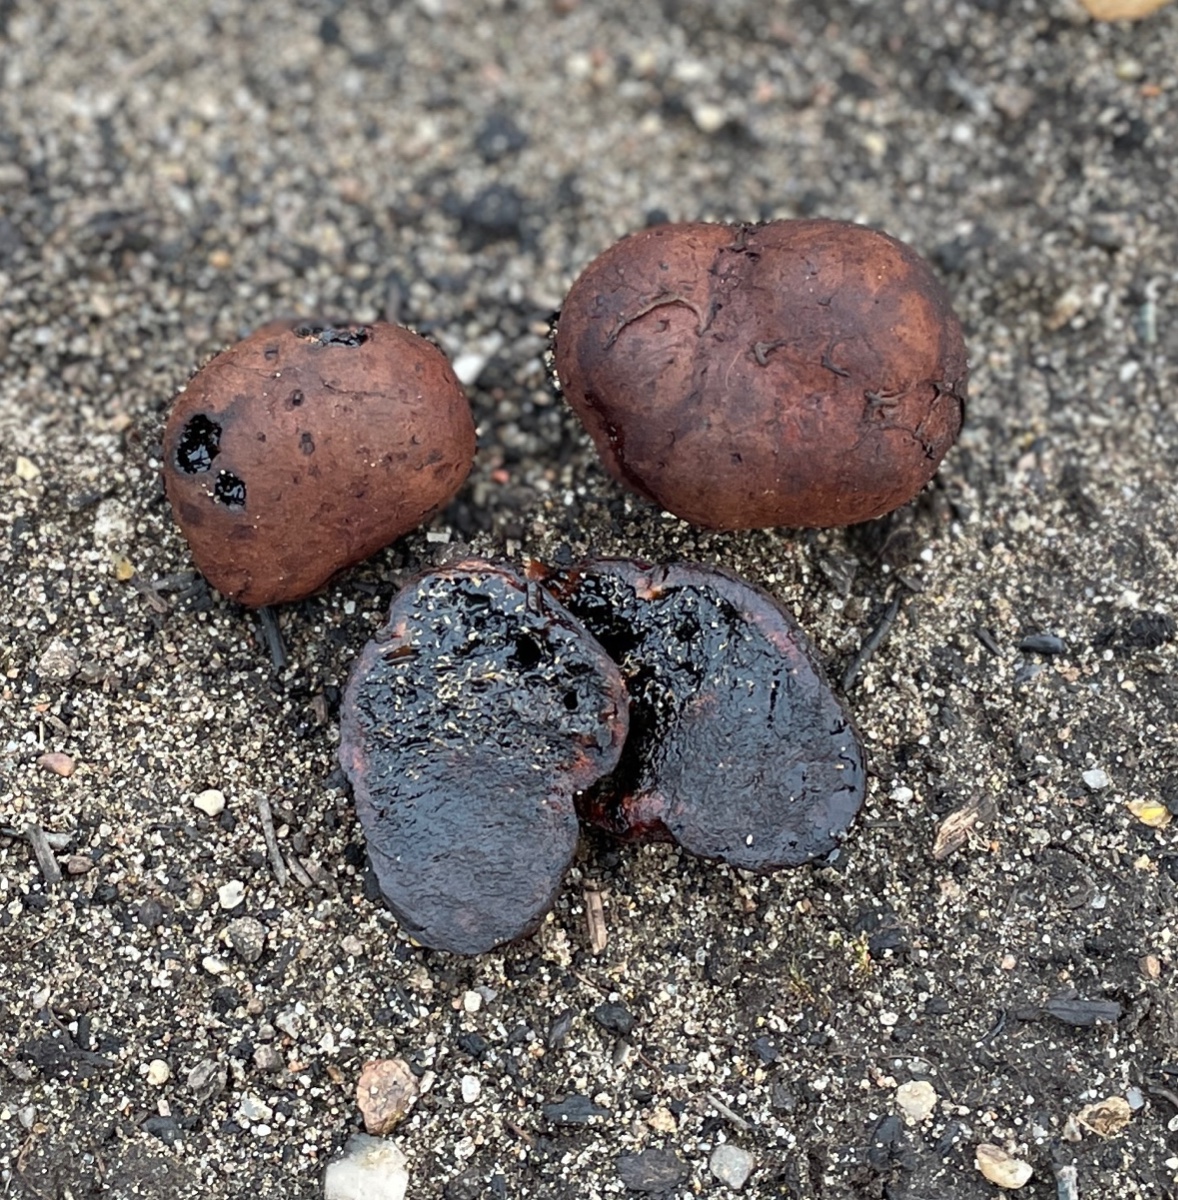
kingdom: Fungi
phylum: Basidiomycota
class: Agaricomycetes
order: Boletales
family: Paxillaceae
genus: Melanogaster
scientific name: Melanogaster tuberiformis
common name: stor slimtrøffel
